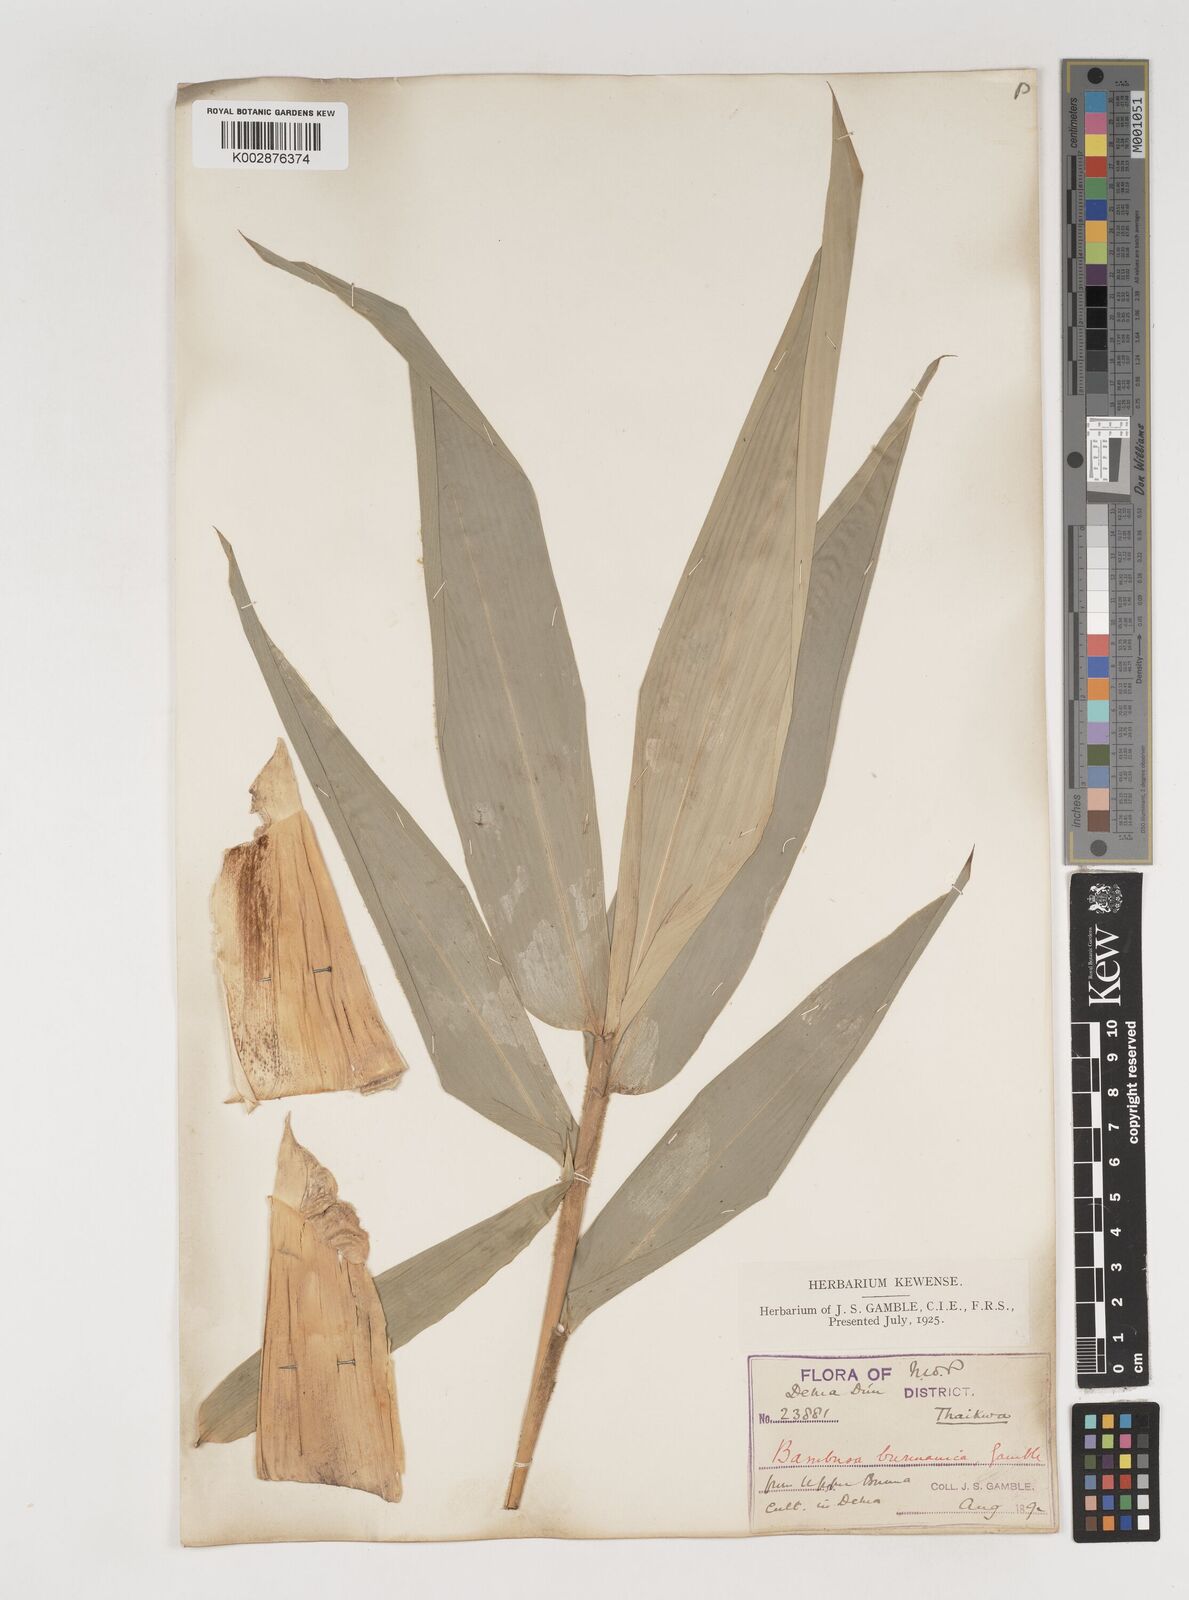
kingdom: Plantae
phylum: Tracheophyta
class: Liliopsida
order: Poales
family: Poaceae
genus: Bambusa
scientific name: Bambusa burmanica
